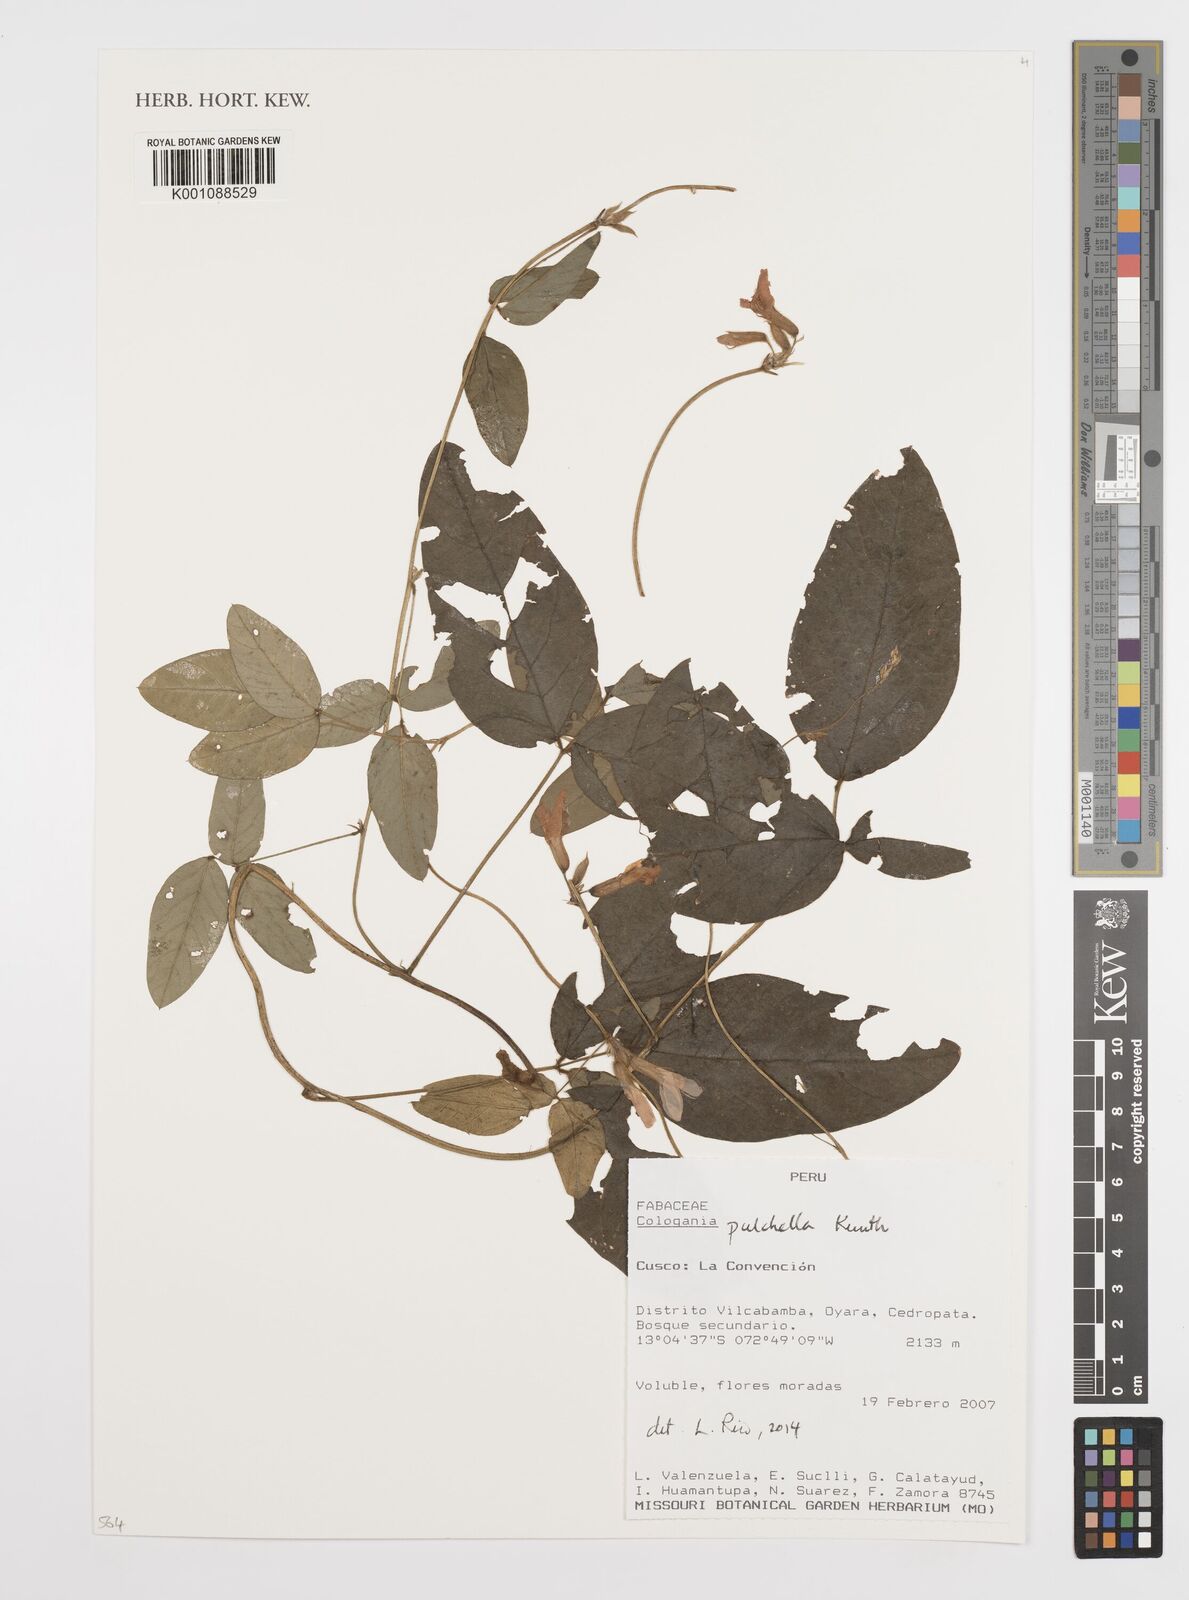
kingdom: Plantae
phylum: Tracheophyta
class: Magnoliopsida
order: Fabales
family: Fabaceae
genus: Cologania
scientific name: Cologania broussonetii
